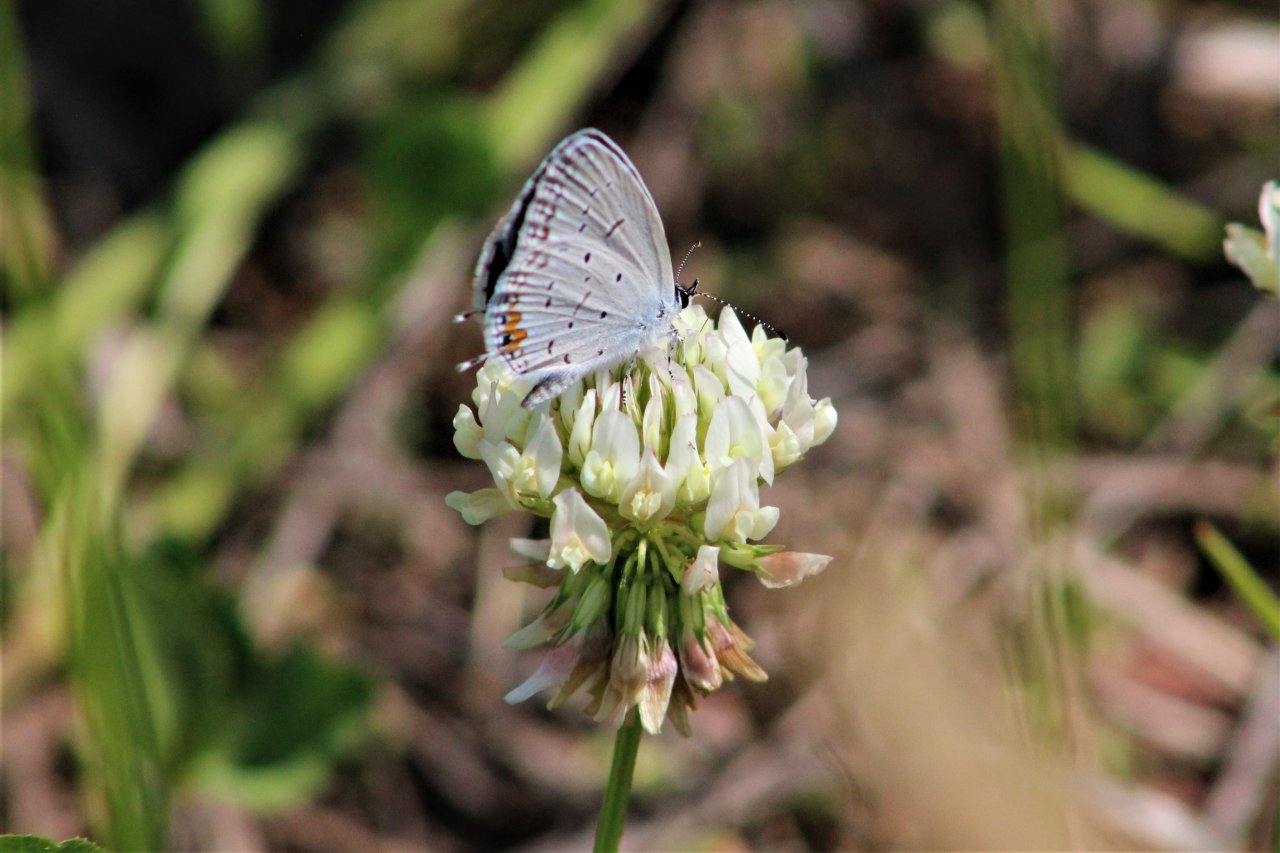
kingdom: Animalia
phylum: Arthropoda
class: Insecta
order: Lepidoptera
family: Lycaenidae
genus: Elkalyce
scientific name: Elkalyce comyntas
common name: Eastern Tailed-Blue
